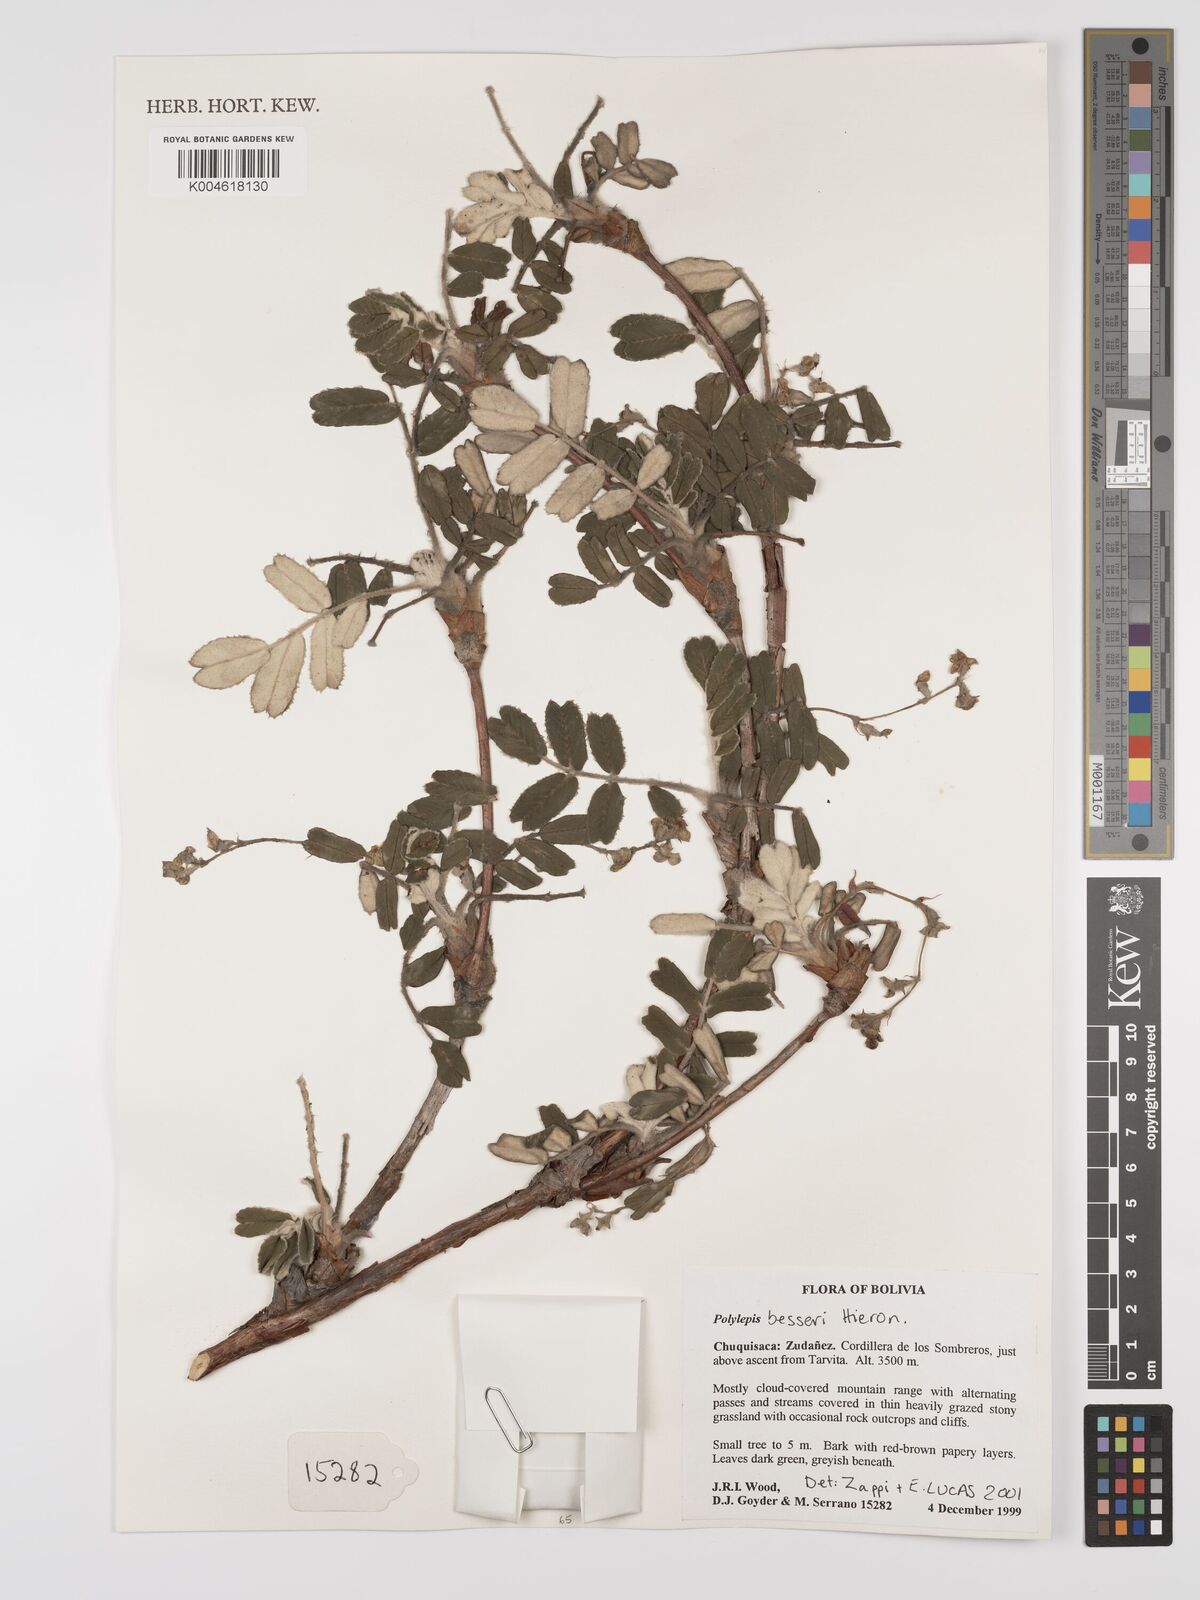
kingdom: Plantae
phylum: Tracheophyta
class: Magnoliopsida
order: Rosales
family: Rosaceae
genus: Polylepis
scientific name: Polylepis
